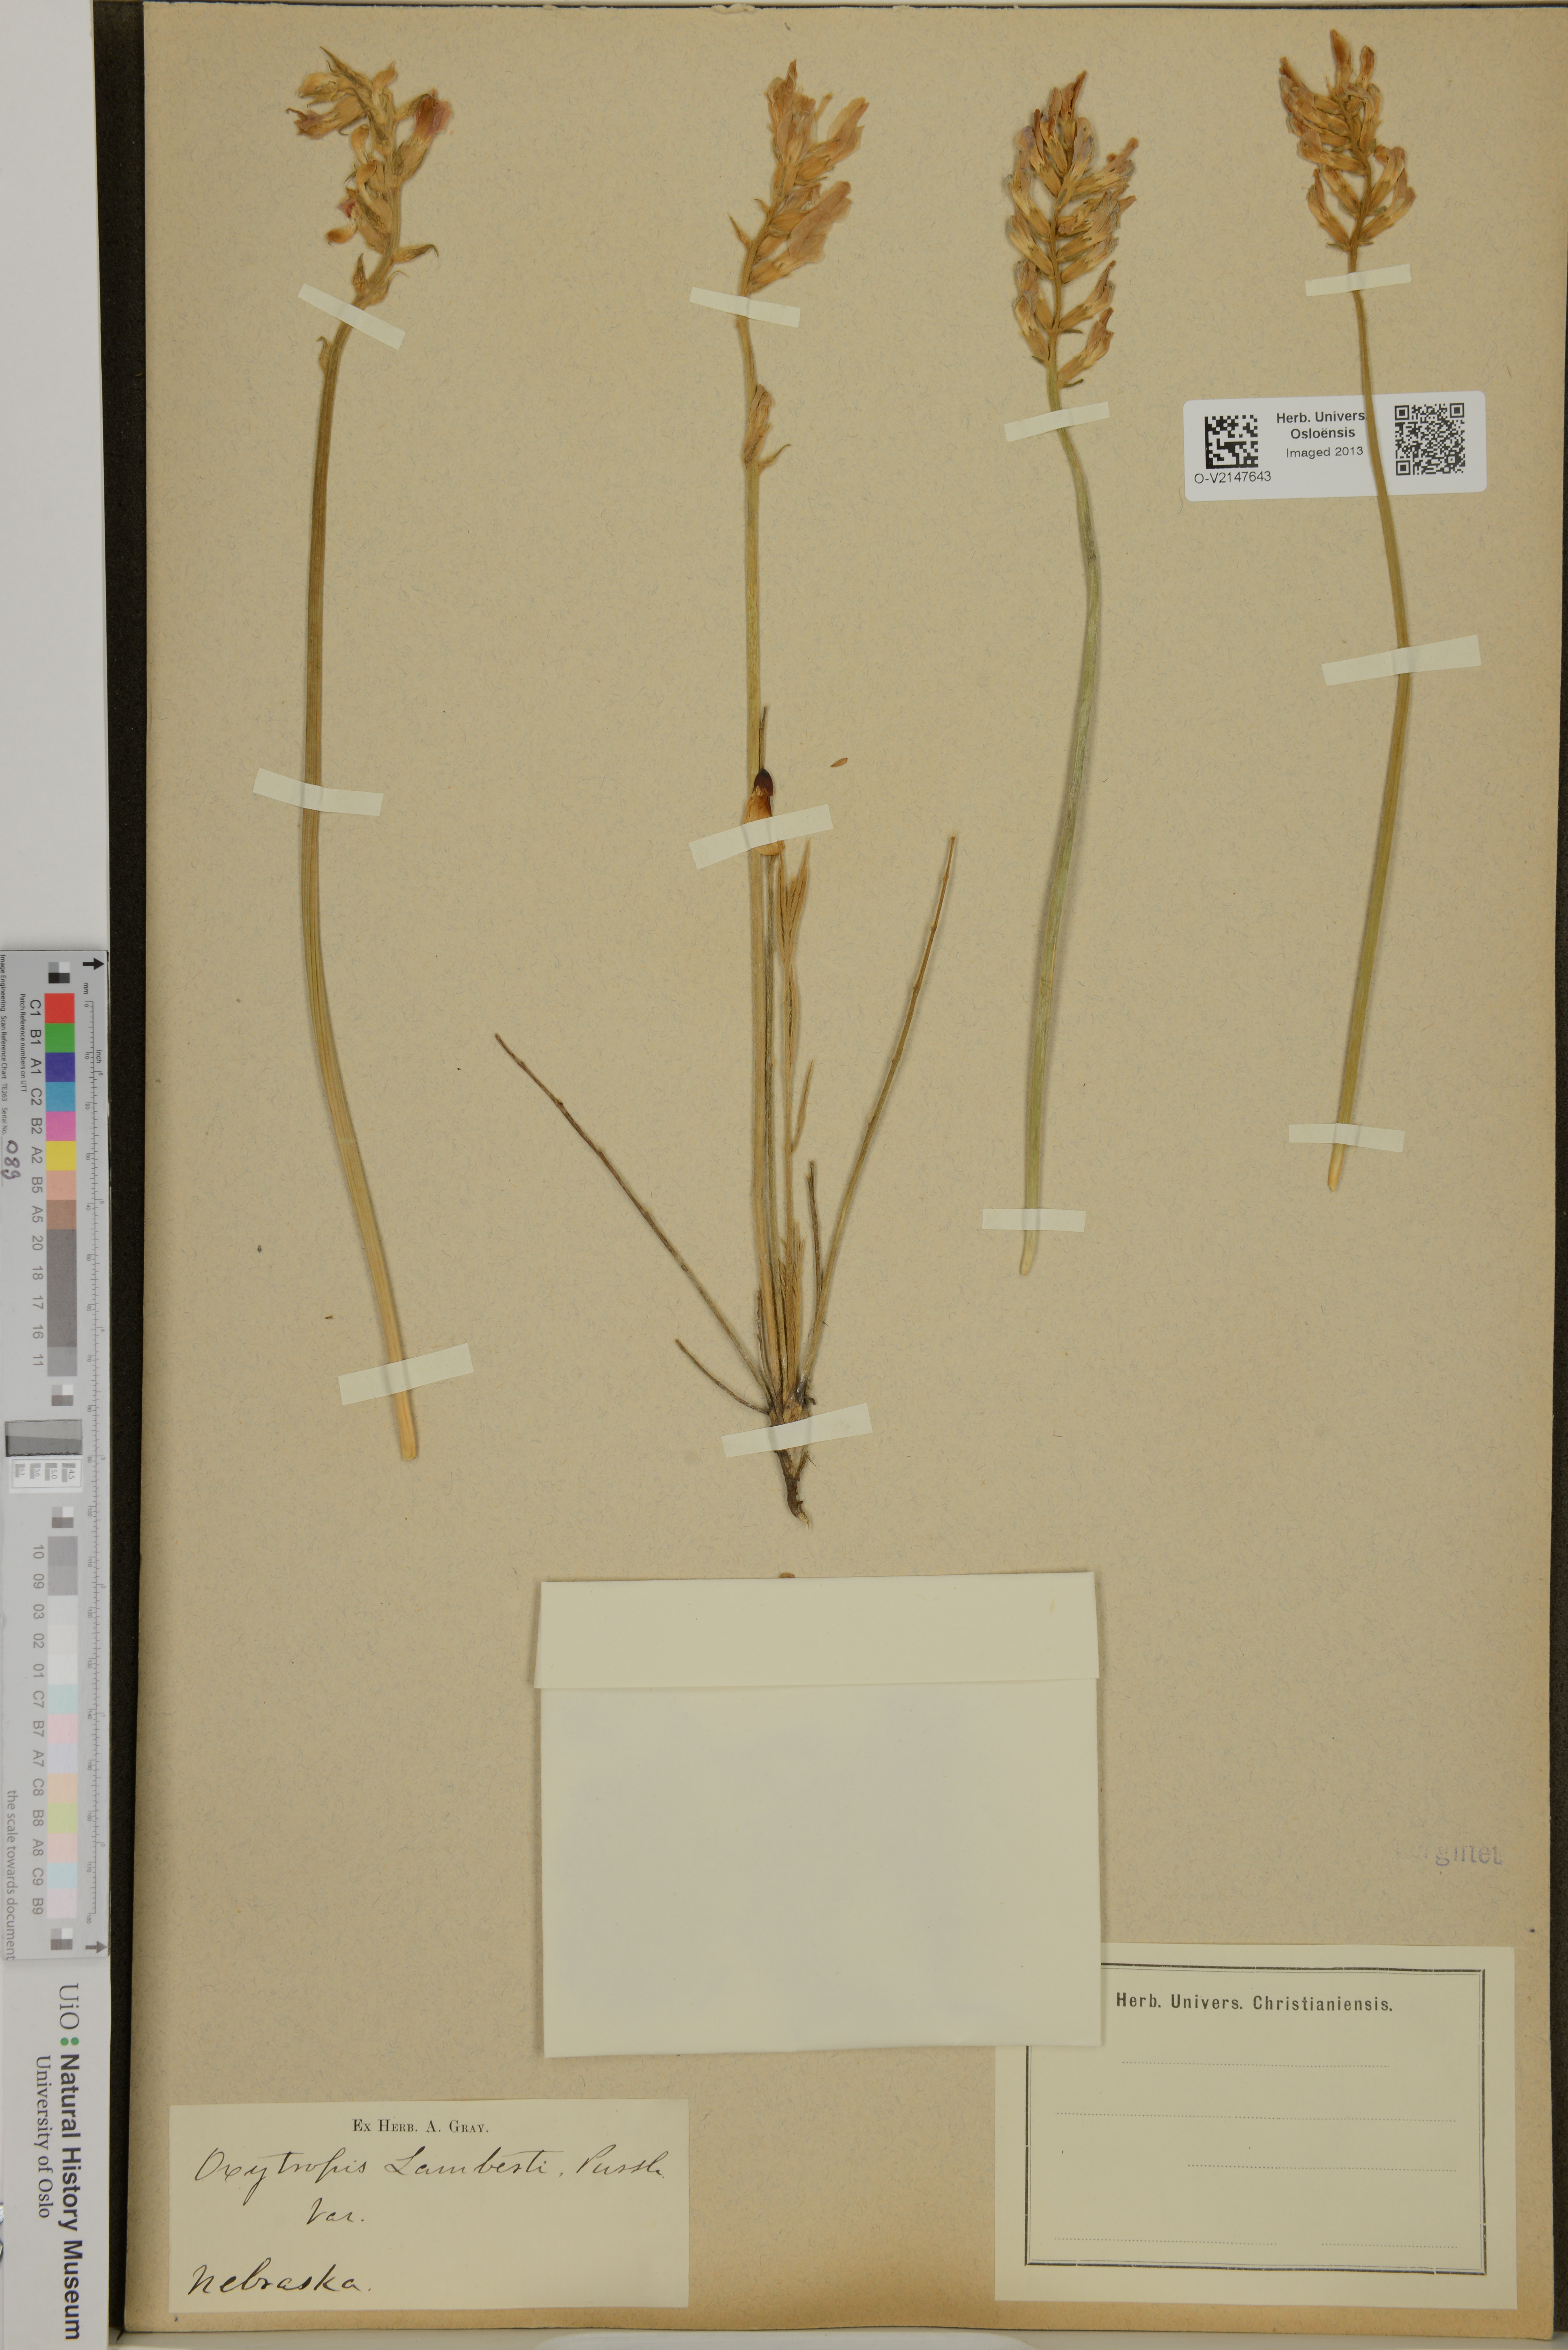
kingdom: Plantae
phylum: Tracheophyta
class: Magnoliopsida
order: Fabales
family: Fabaceae
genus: Oxytropis
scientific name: Oxytropis lambertii
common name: Purple locoweed
